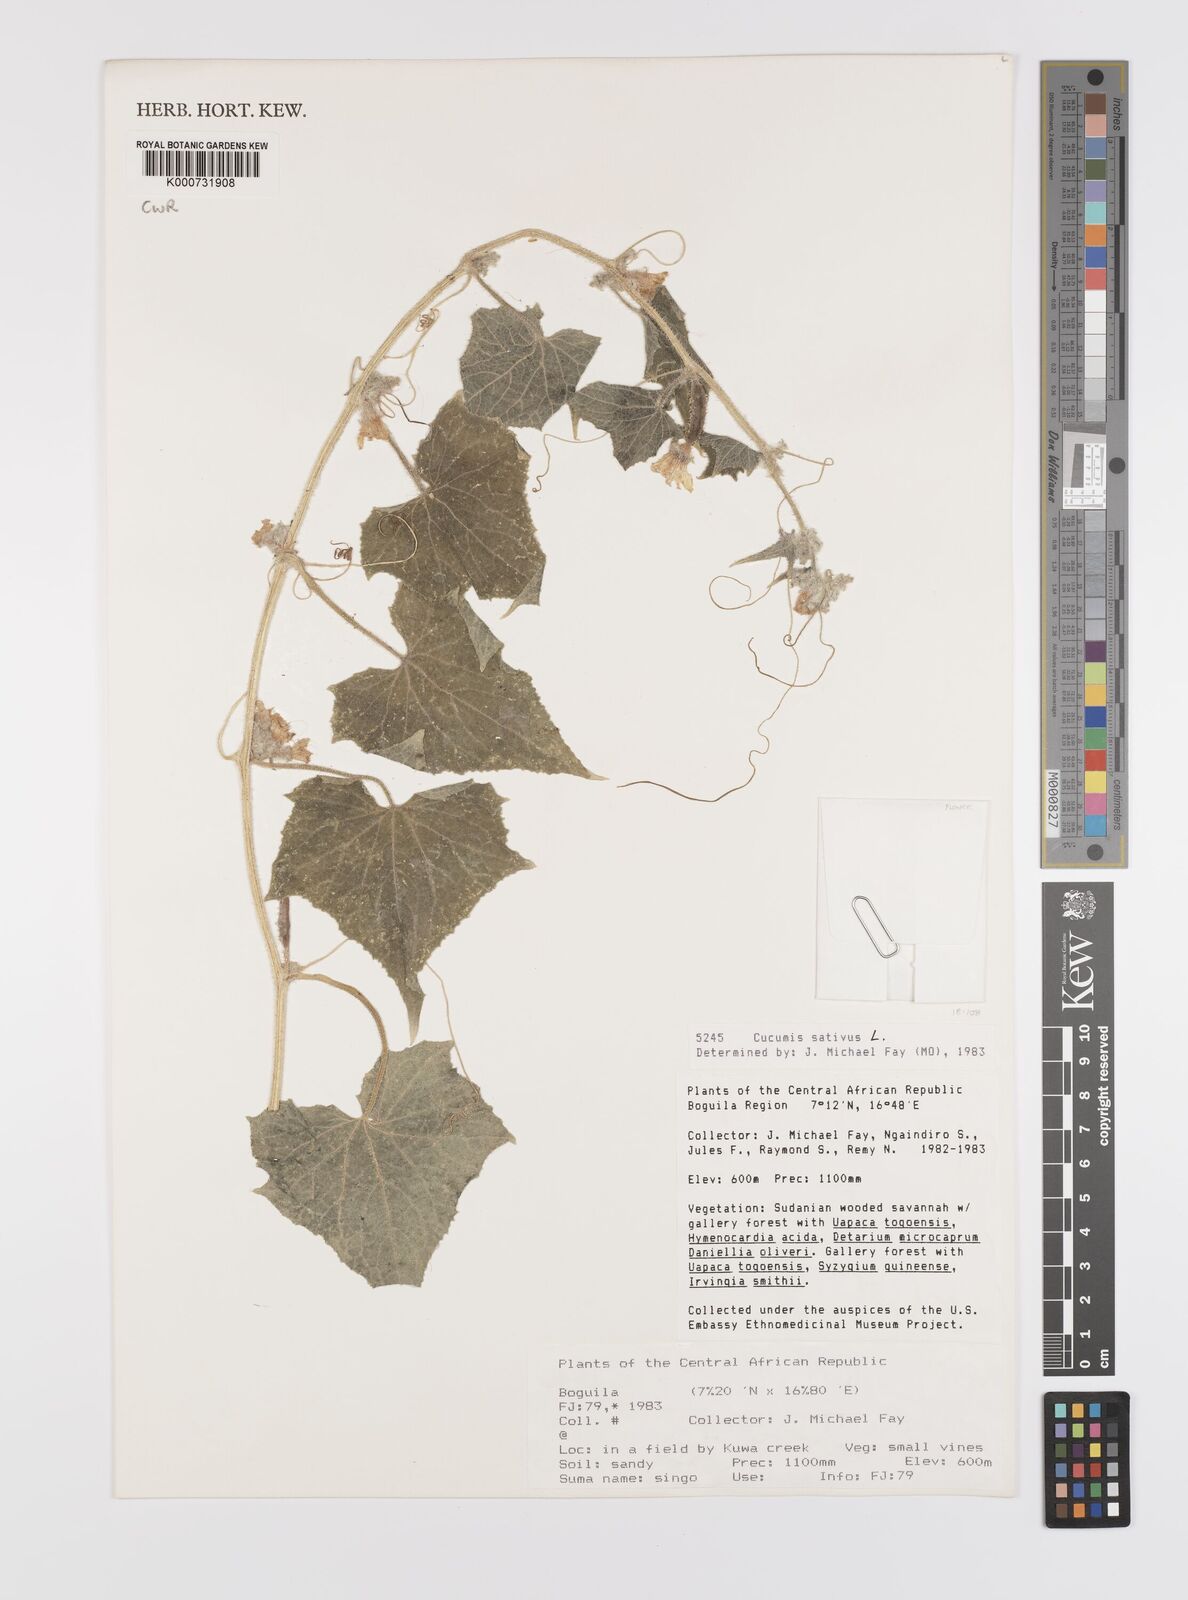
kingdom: Plantae
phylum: Tracheophyta
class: Magnoliopsida
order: Cucurbitales
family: Cucurbitaceae
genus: Cucumis
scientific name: Cucumis sativus
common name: Cucumber
